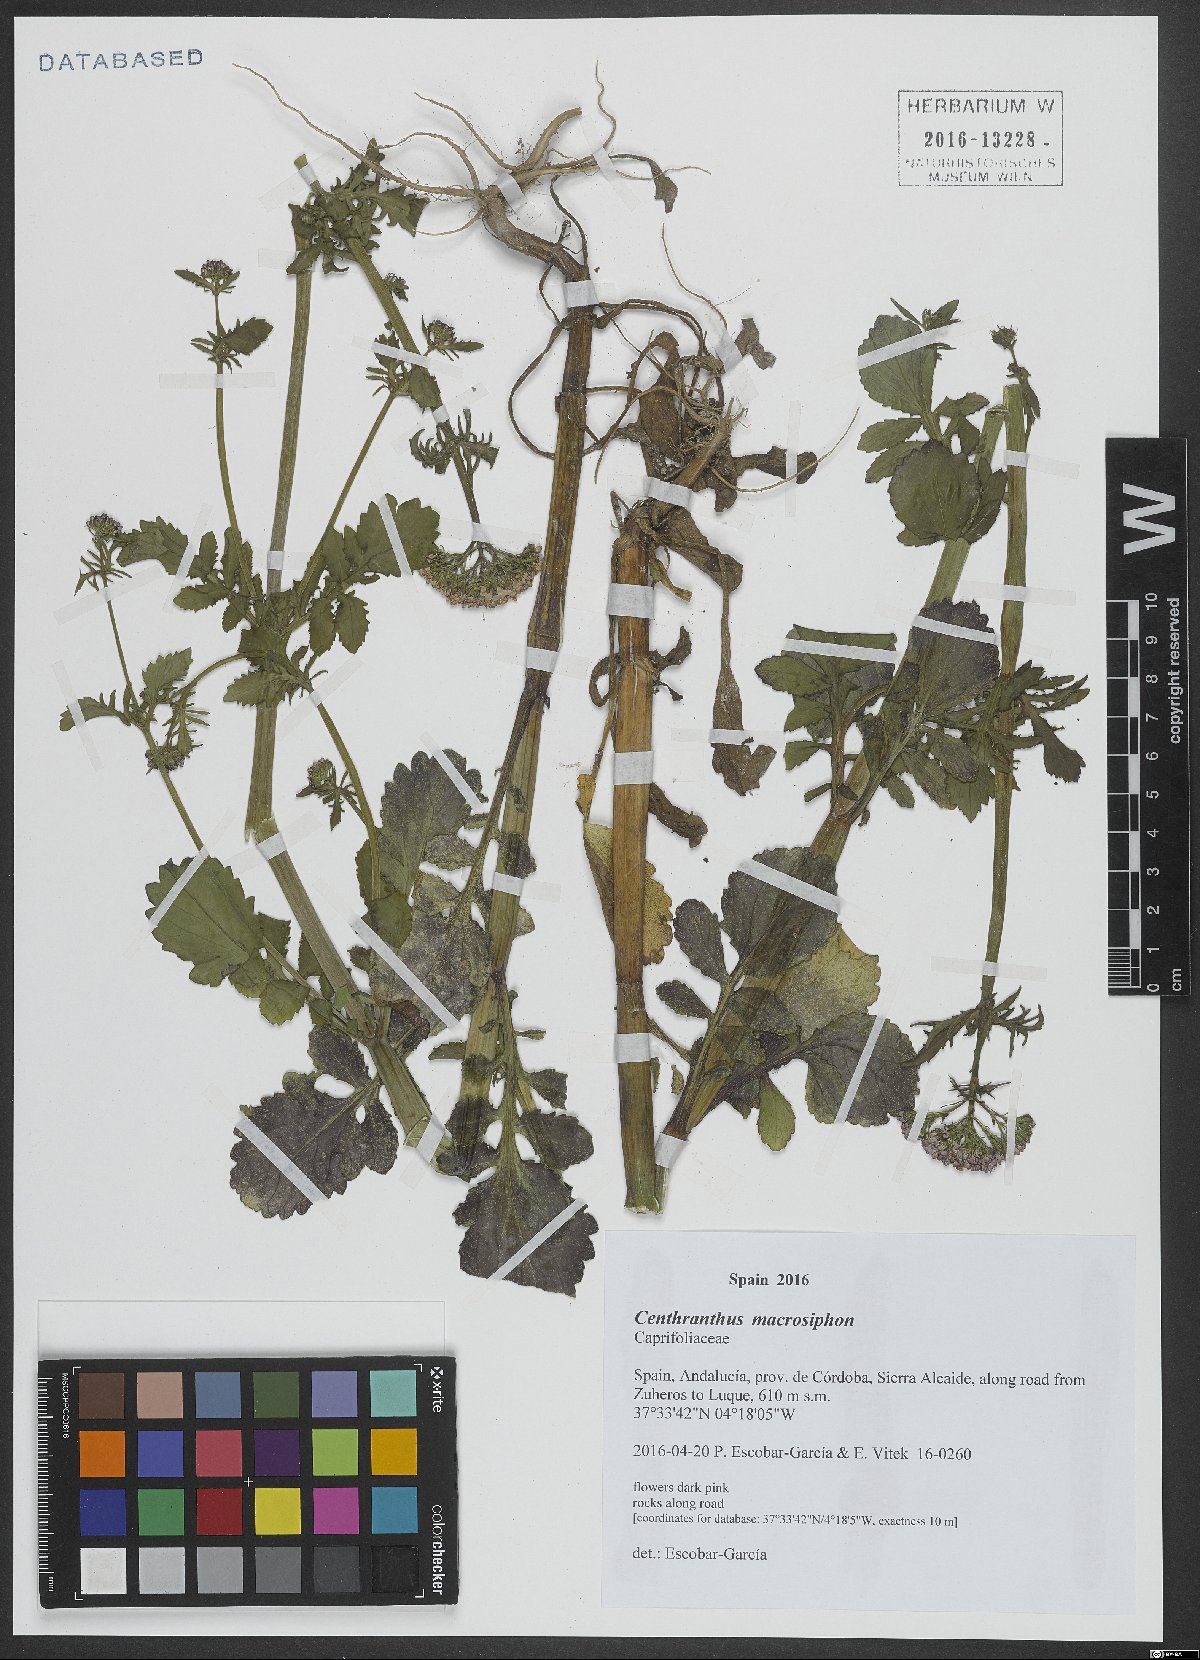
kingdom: Plantae
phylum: Tracheophyta
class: Magnoliopsida
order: Dipsacales
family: Caprifoliaceae
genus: Centranthus
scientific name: Centranthus macrosiphon
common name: Spanish-valerian
